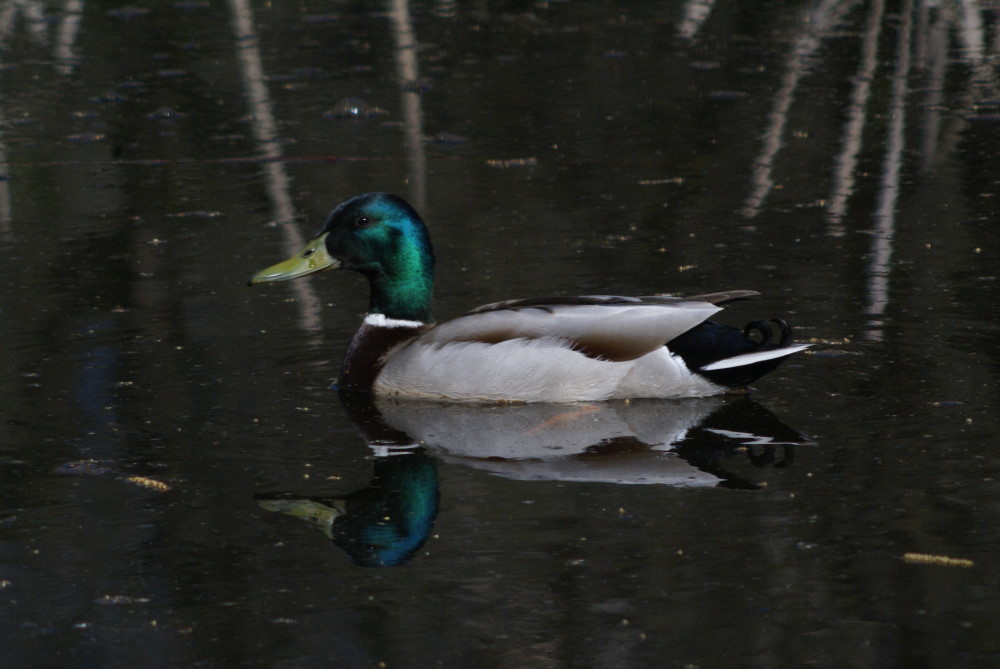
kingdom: Animalia
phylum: Chordata
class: Aves
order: Anseriformes
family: Anatidae
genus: Anas
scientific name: Anas platyrhynchos
